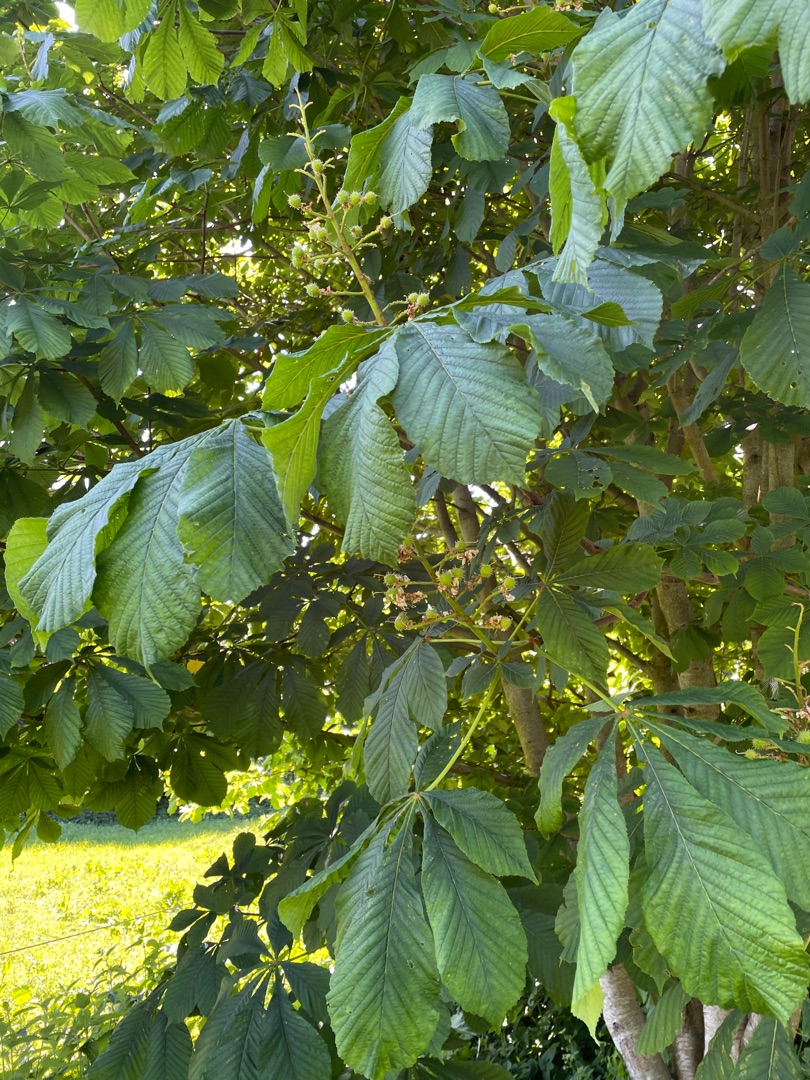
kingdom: Plantae
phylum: Tracheophyta
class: Magnoliopsida
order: Sapindales
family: Sapindaceae
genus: Aesculus
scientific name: Aesculus hippocastanum
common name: Hestekastanie
